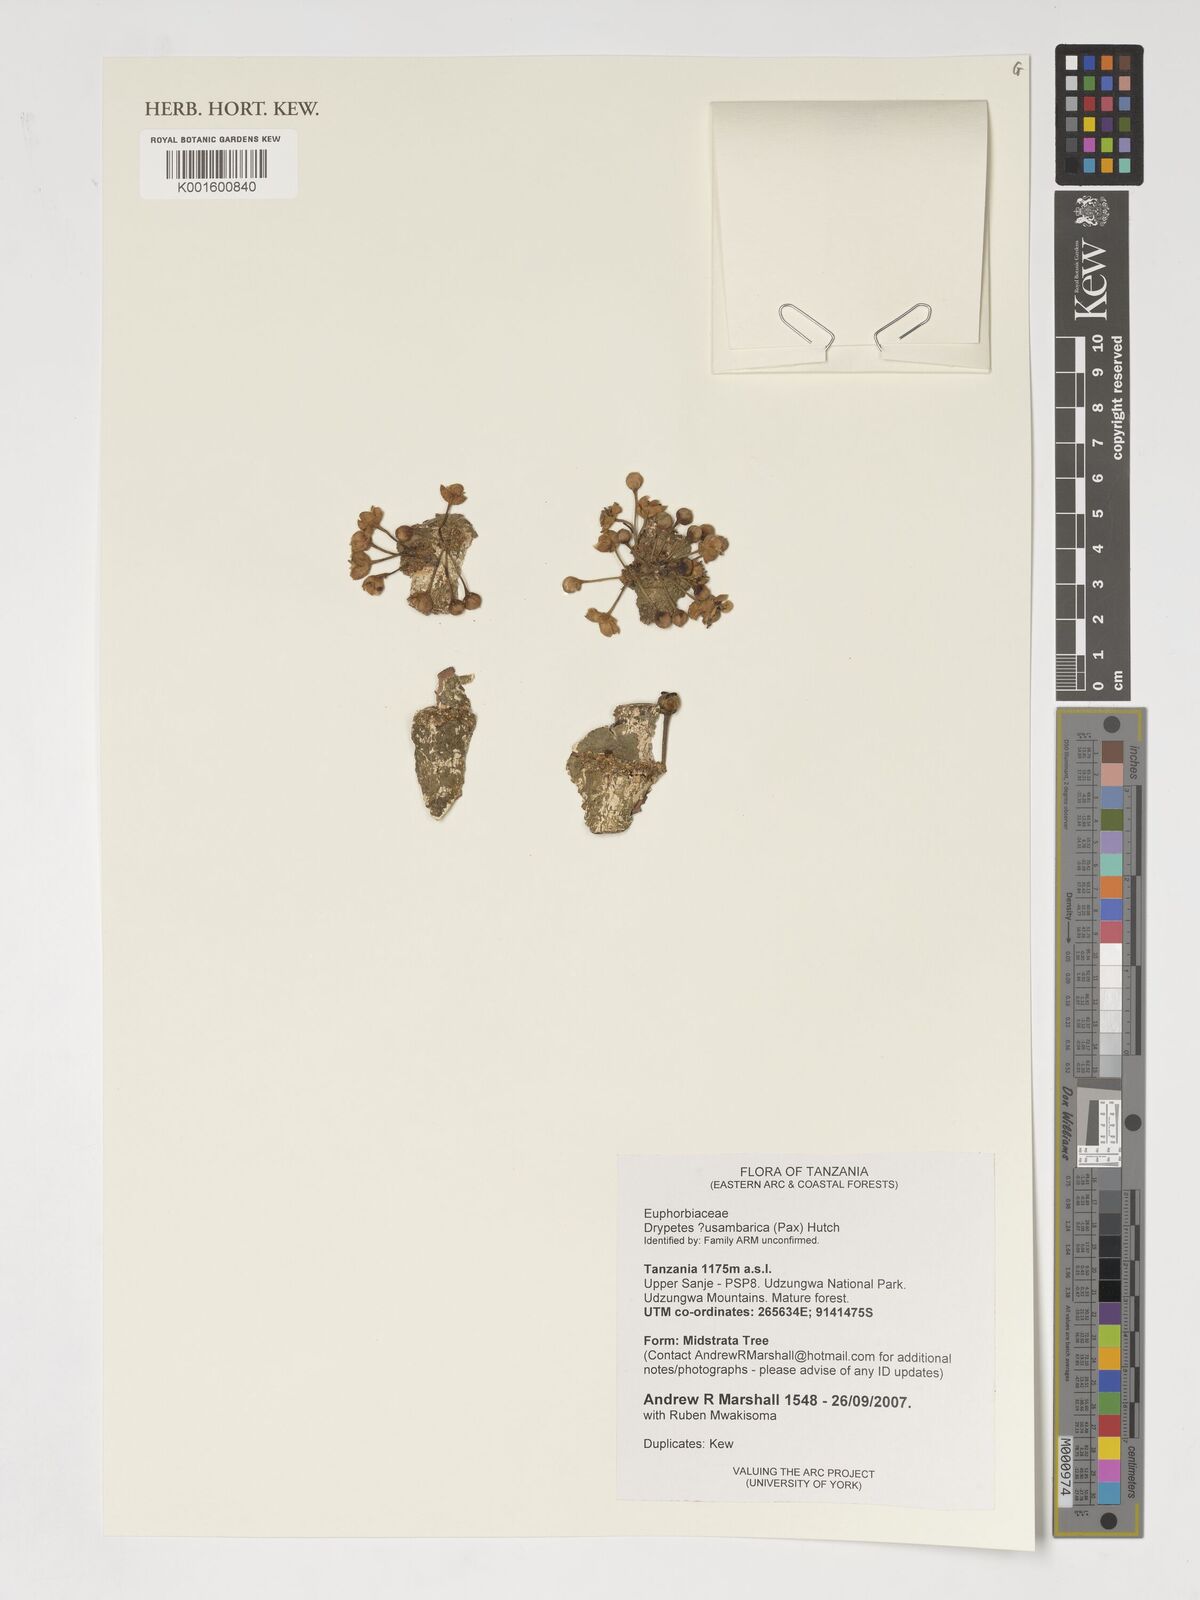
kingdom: Plantae
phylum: Tracheophyta
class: Magnoliopsida
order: Malpighiales
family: Putranjivaceae
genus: Drypetes
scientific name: Drypetes usambarica
